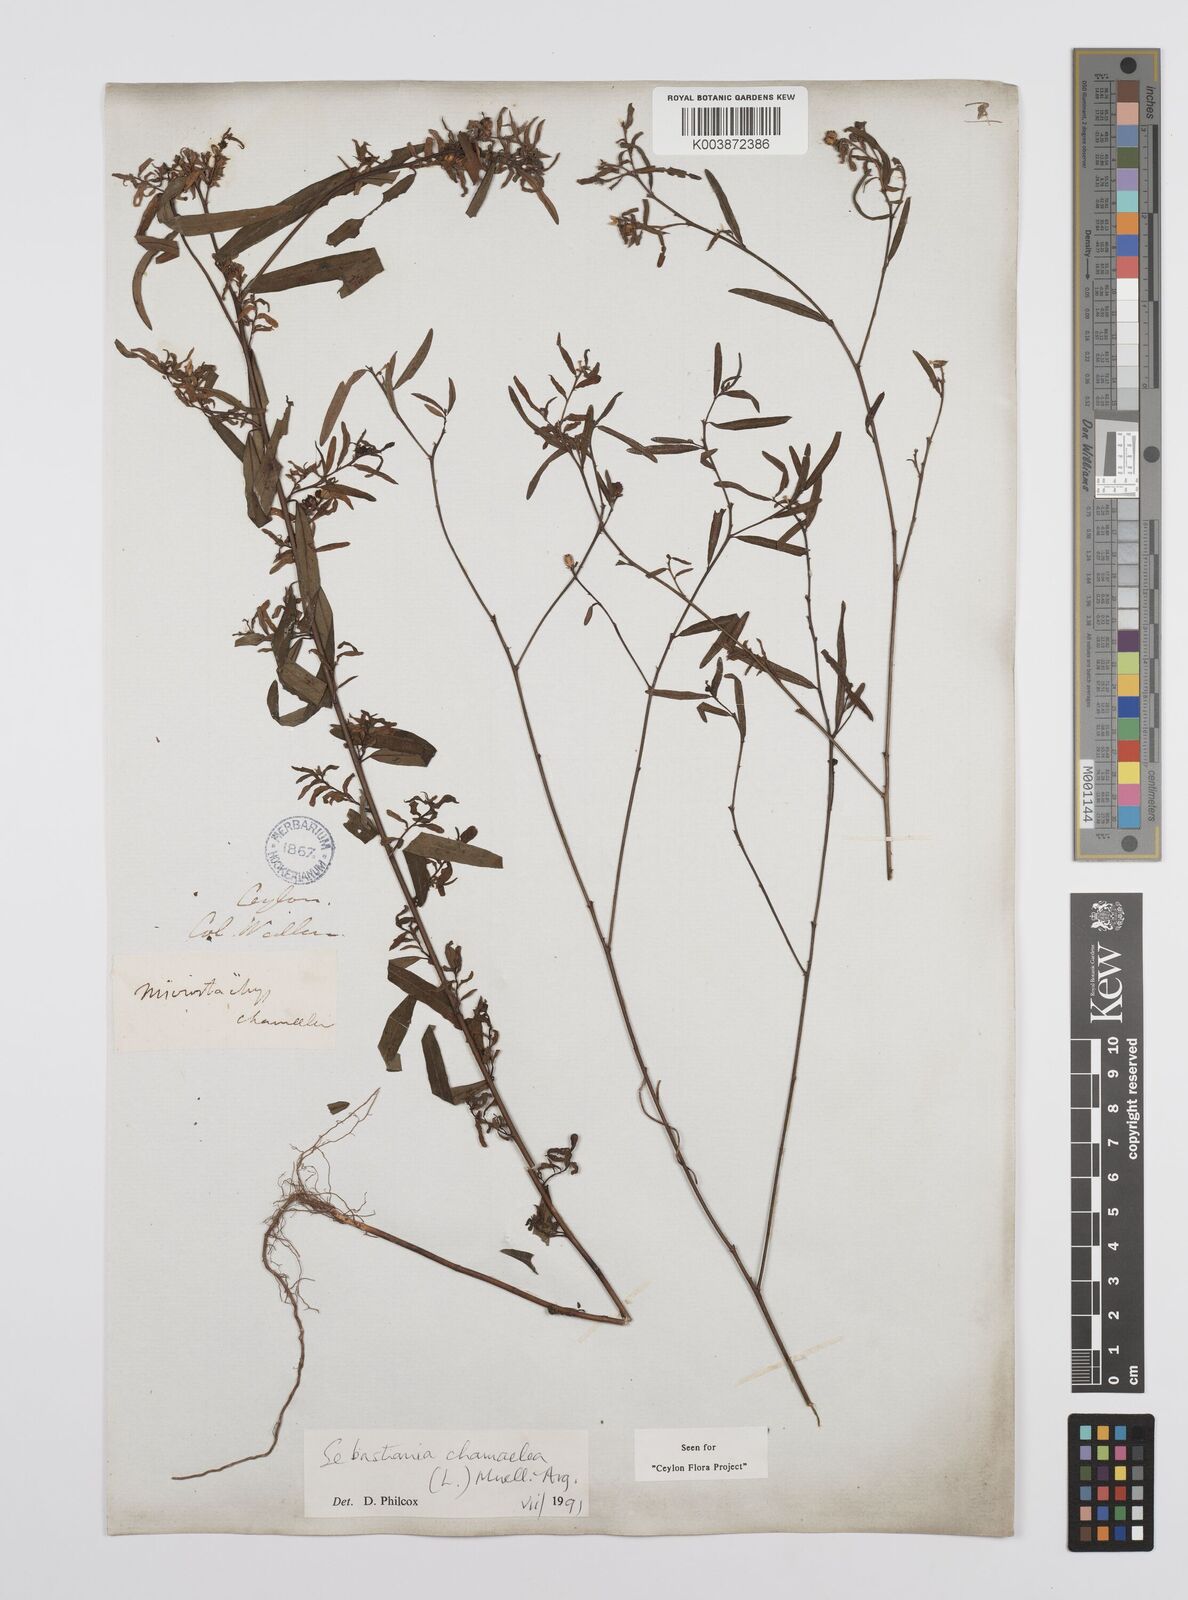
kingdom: Plantae
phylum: Tracheophyta
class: Magnoliopsida
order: Malpighiales
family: Euphorbiaceae
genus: Microstachys
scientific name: Microstachys chamaelea
